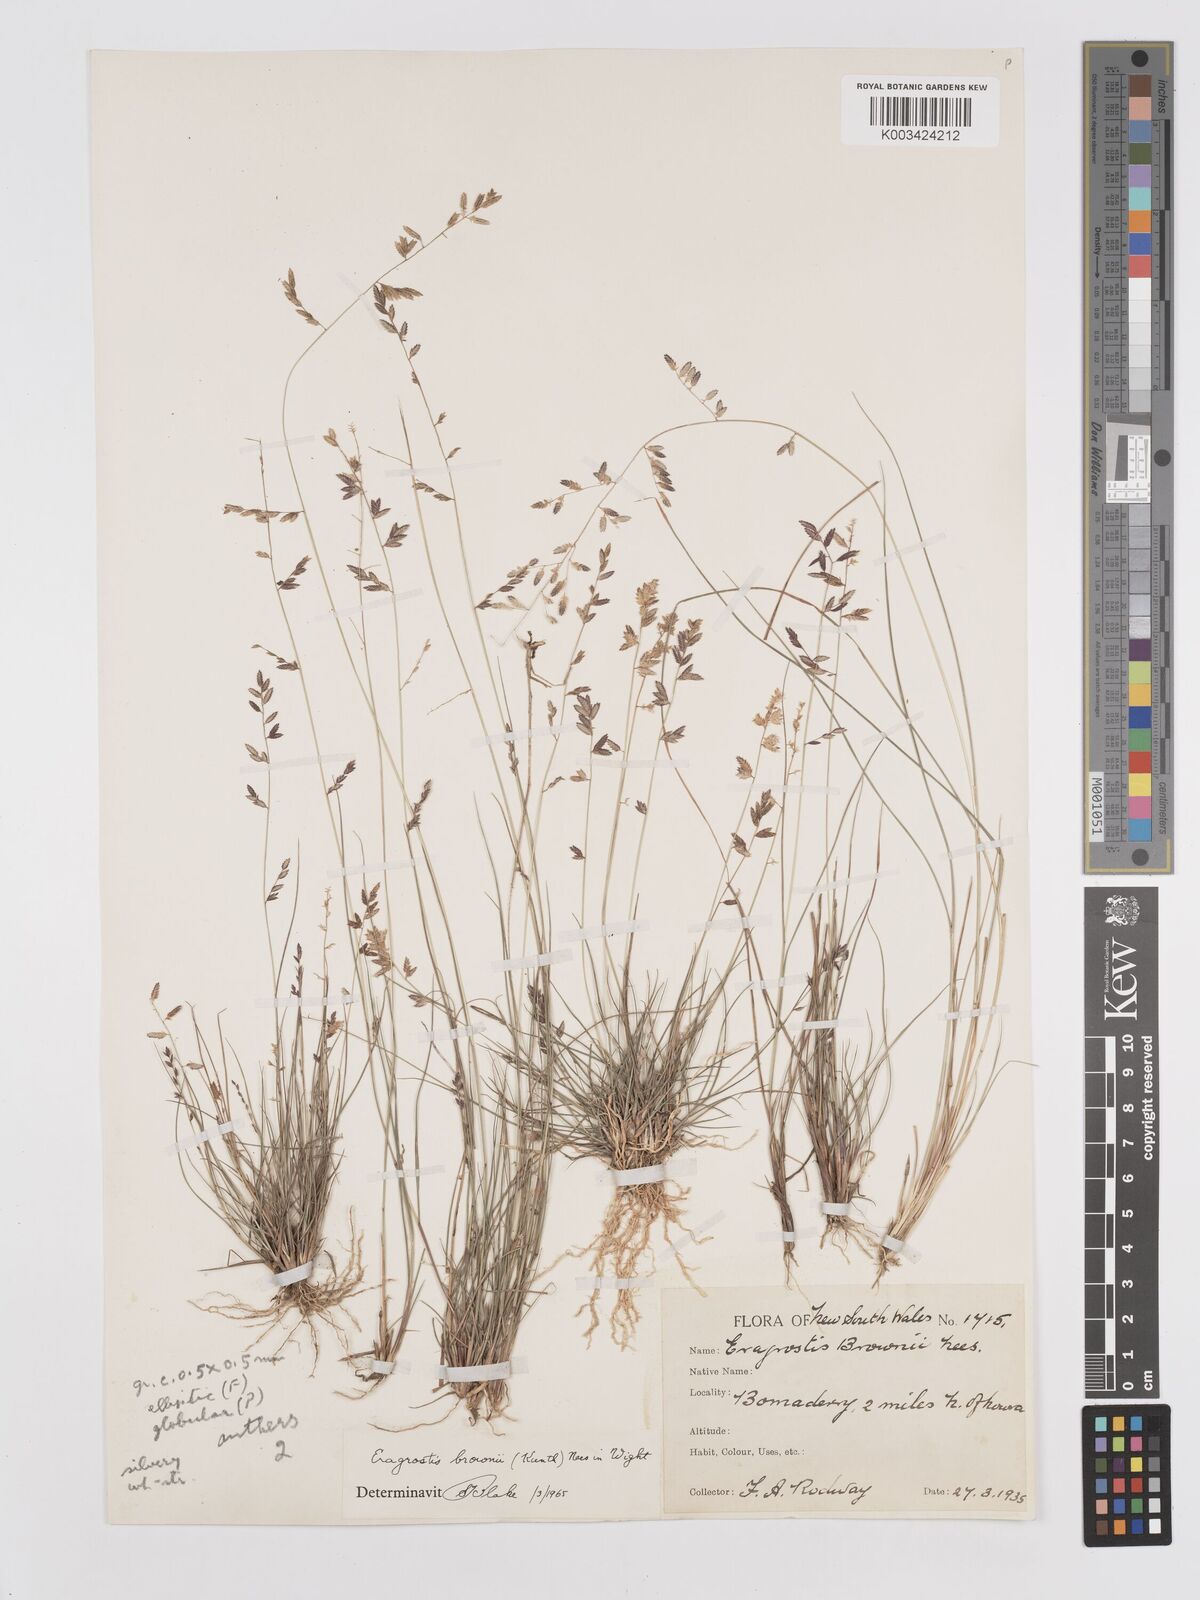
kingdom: Plantae
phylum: Tracheophyta
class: Liliopsida
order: Poales
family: Poaceae
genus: Eragrostis
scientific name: Eragrostis brownii
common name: Lovegrass
